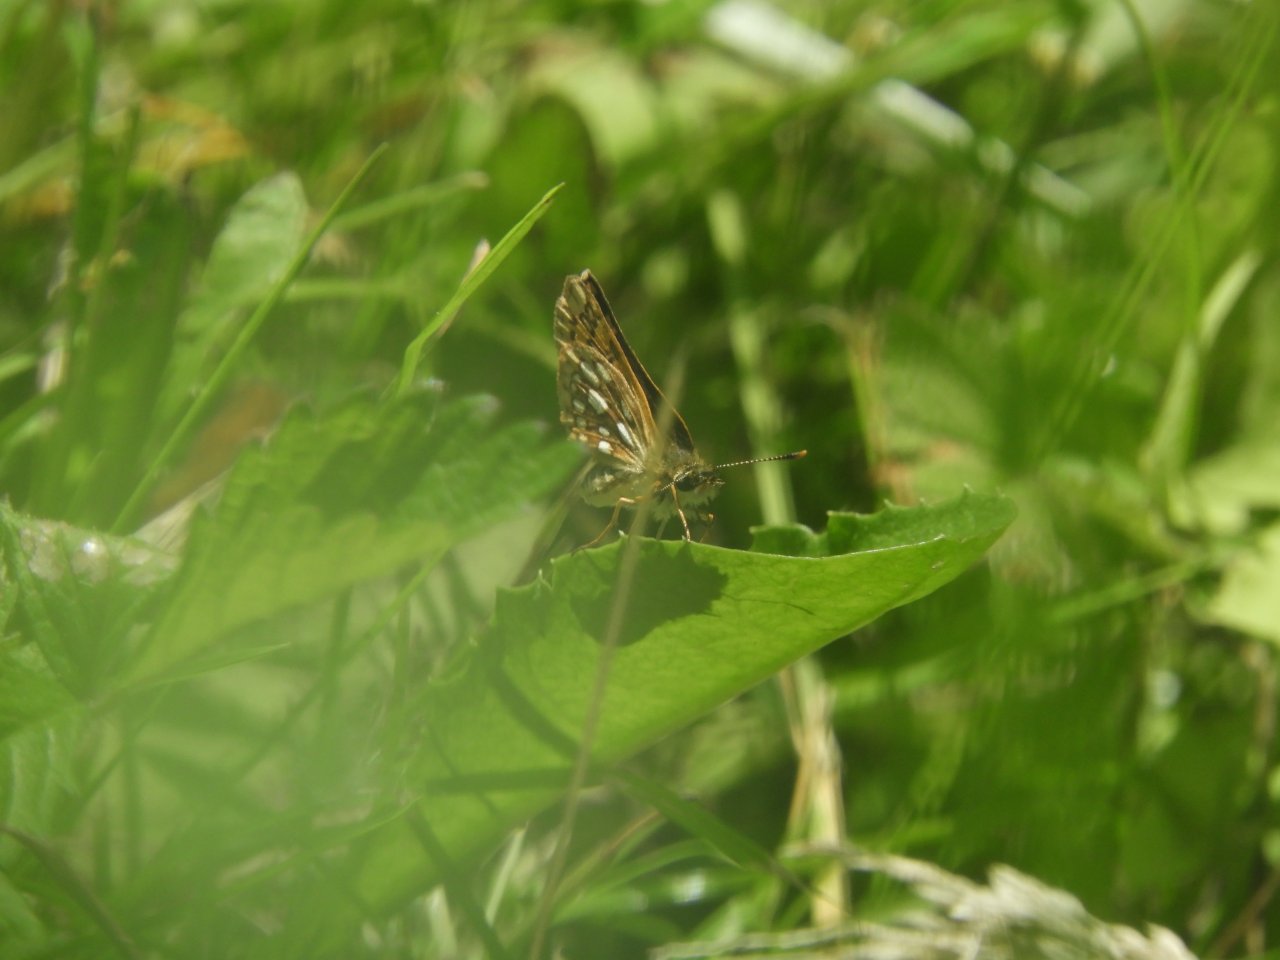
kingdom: Animalia
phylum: Arthropoda
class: Insecta
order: Lepidoptera
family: Hesperiidae
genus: Carterocephalus
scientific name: Carterocephalus palaemon
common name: Chequered Skipper
